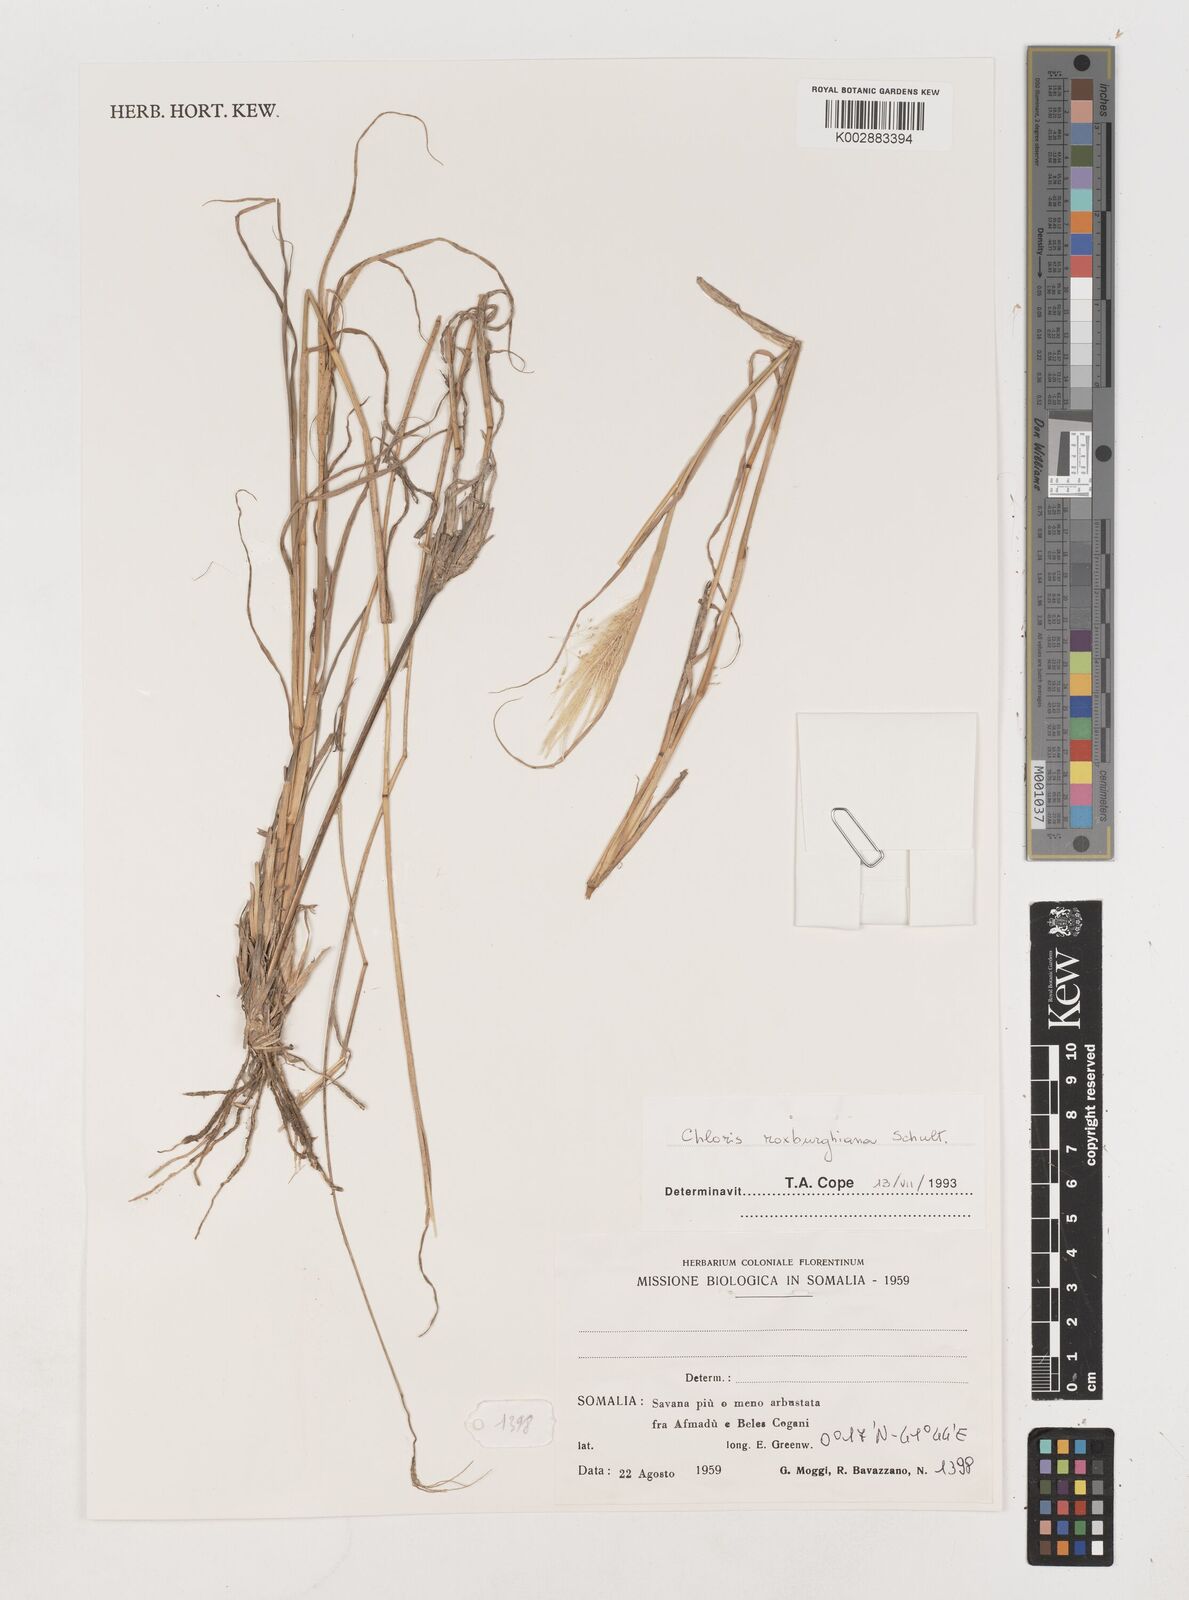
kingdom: Plantae
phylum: Tracheophyta
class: Liliopsida
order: Poales
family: Poaceae
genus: Tetrapogon
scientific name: Tetrapogon roxburghiana
